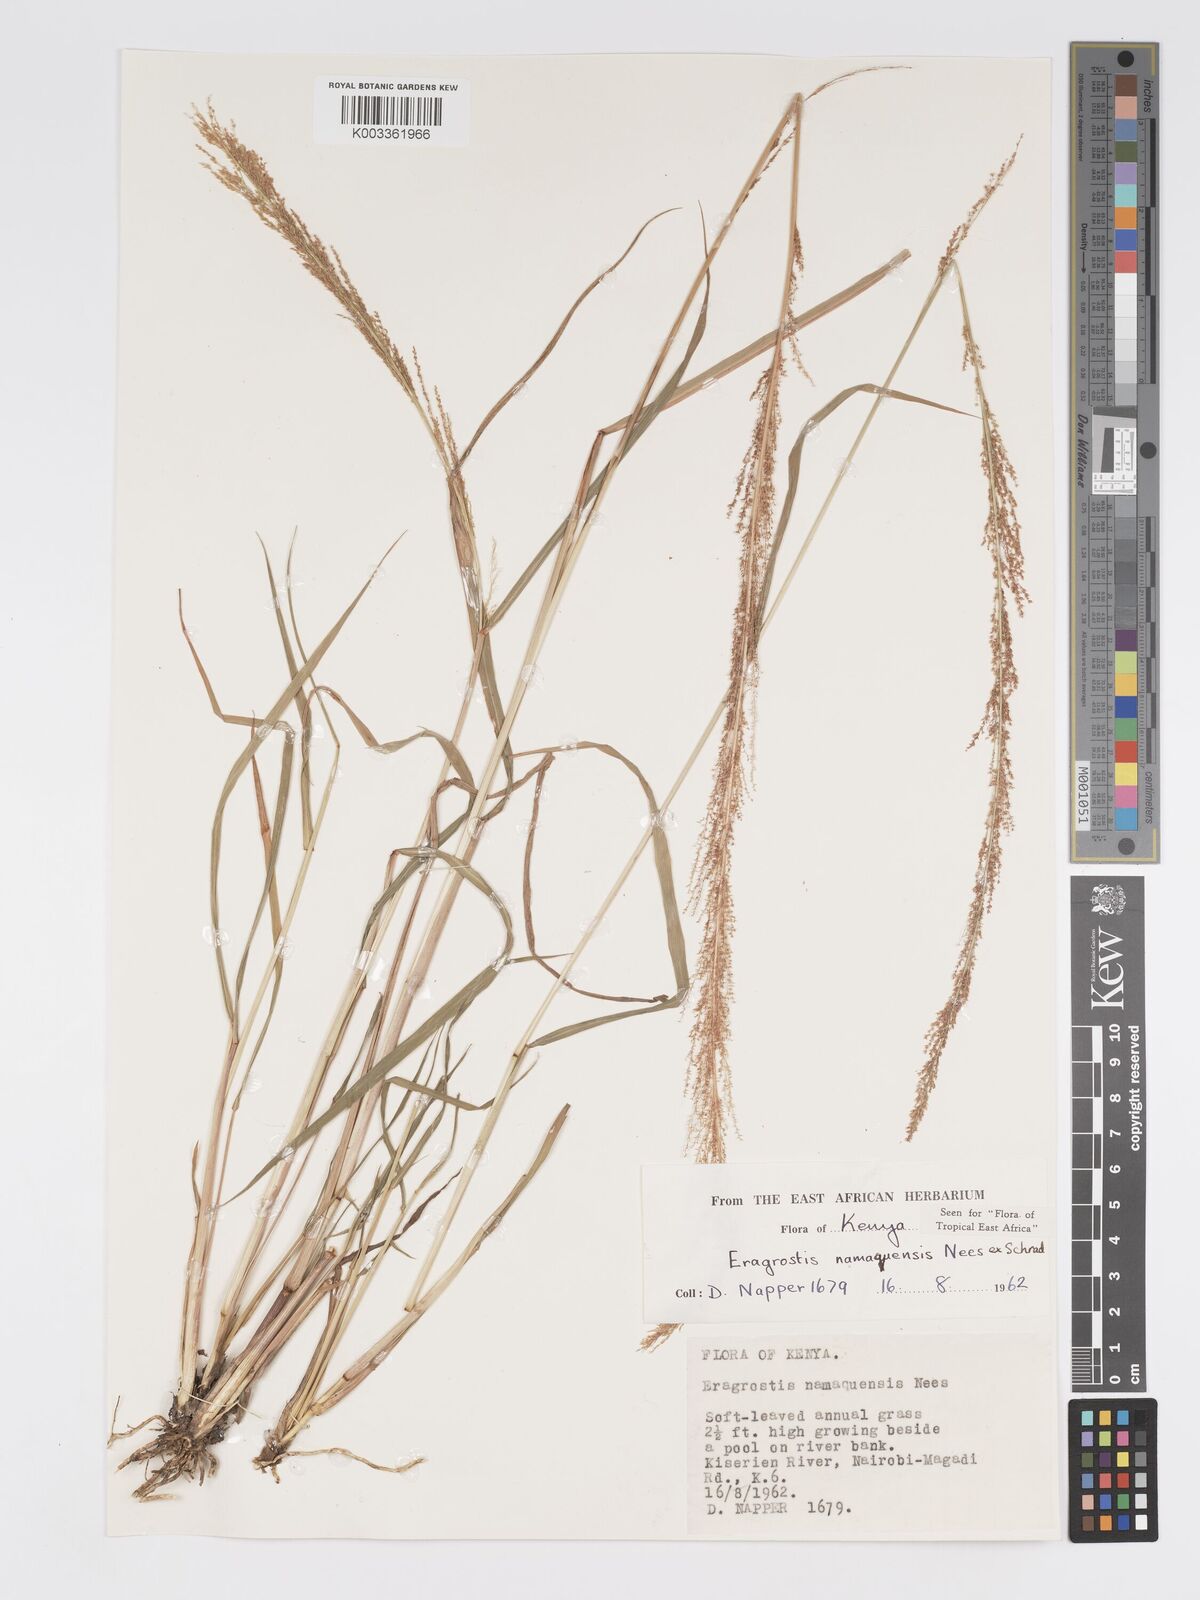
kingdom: Plantae
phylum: Tracheophyta
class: Liliopsida
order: Poales
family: Poaceae
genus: Eragrostis
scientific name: Eragrostis japonica
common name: Pond lovegrass
